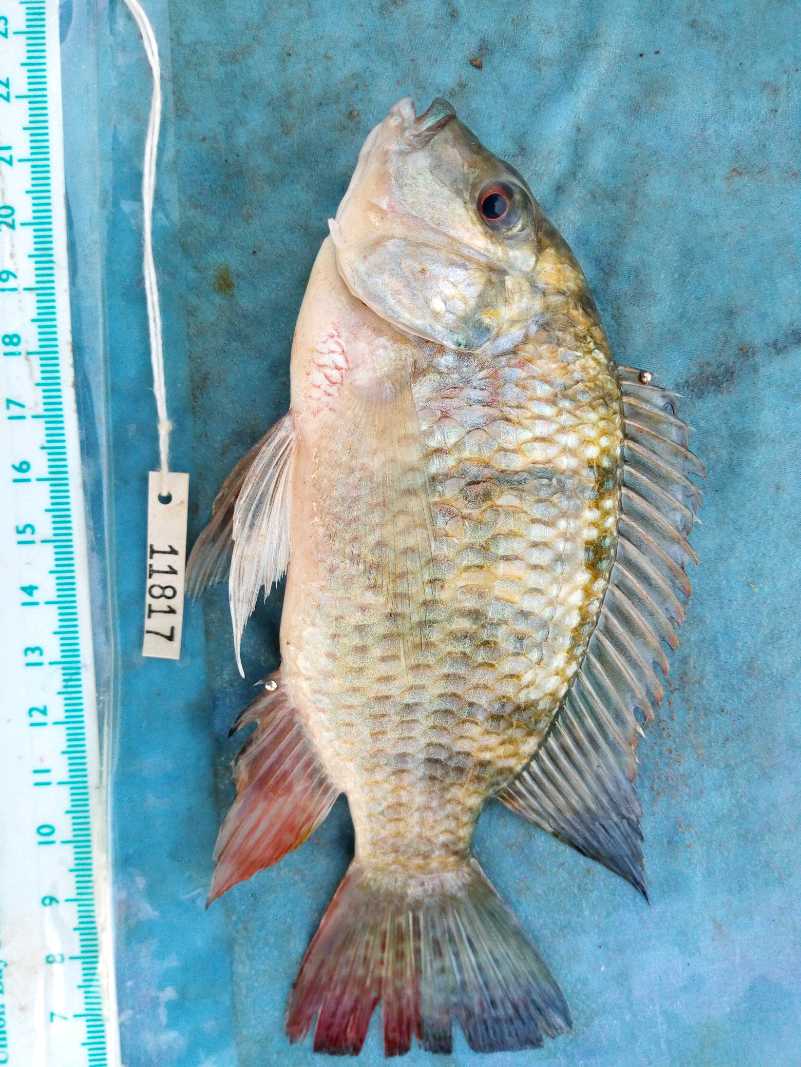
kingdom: Animalia
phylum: Chordata
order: Perciformes
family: Cichlidae
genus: Coptodon
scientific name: Coptodon rendalli
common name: Redbreast tilapia
